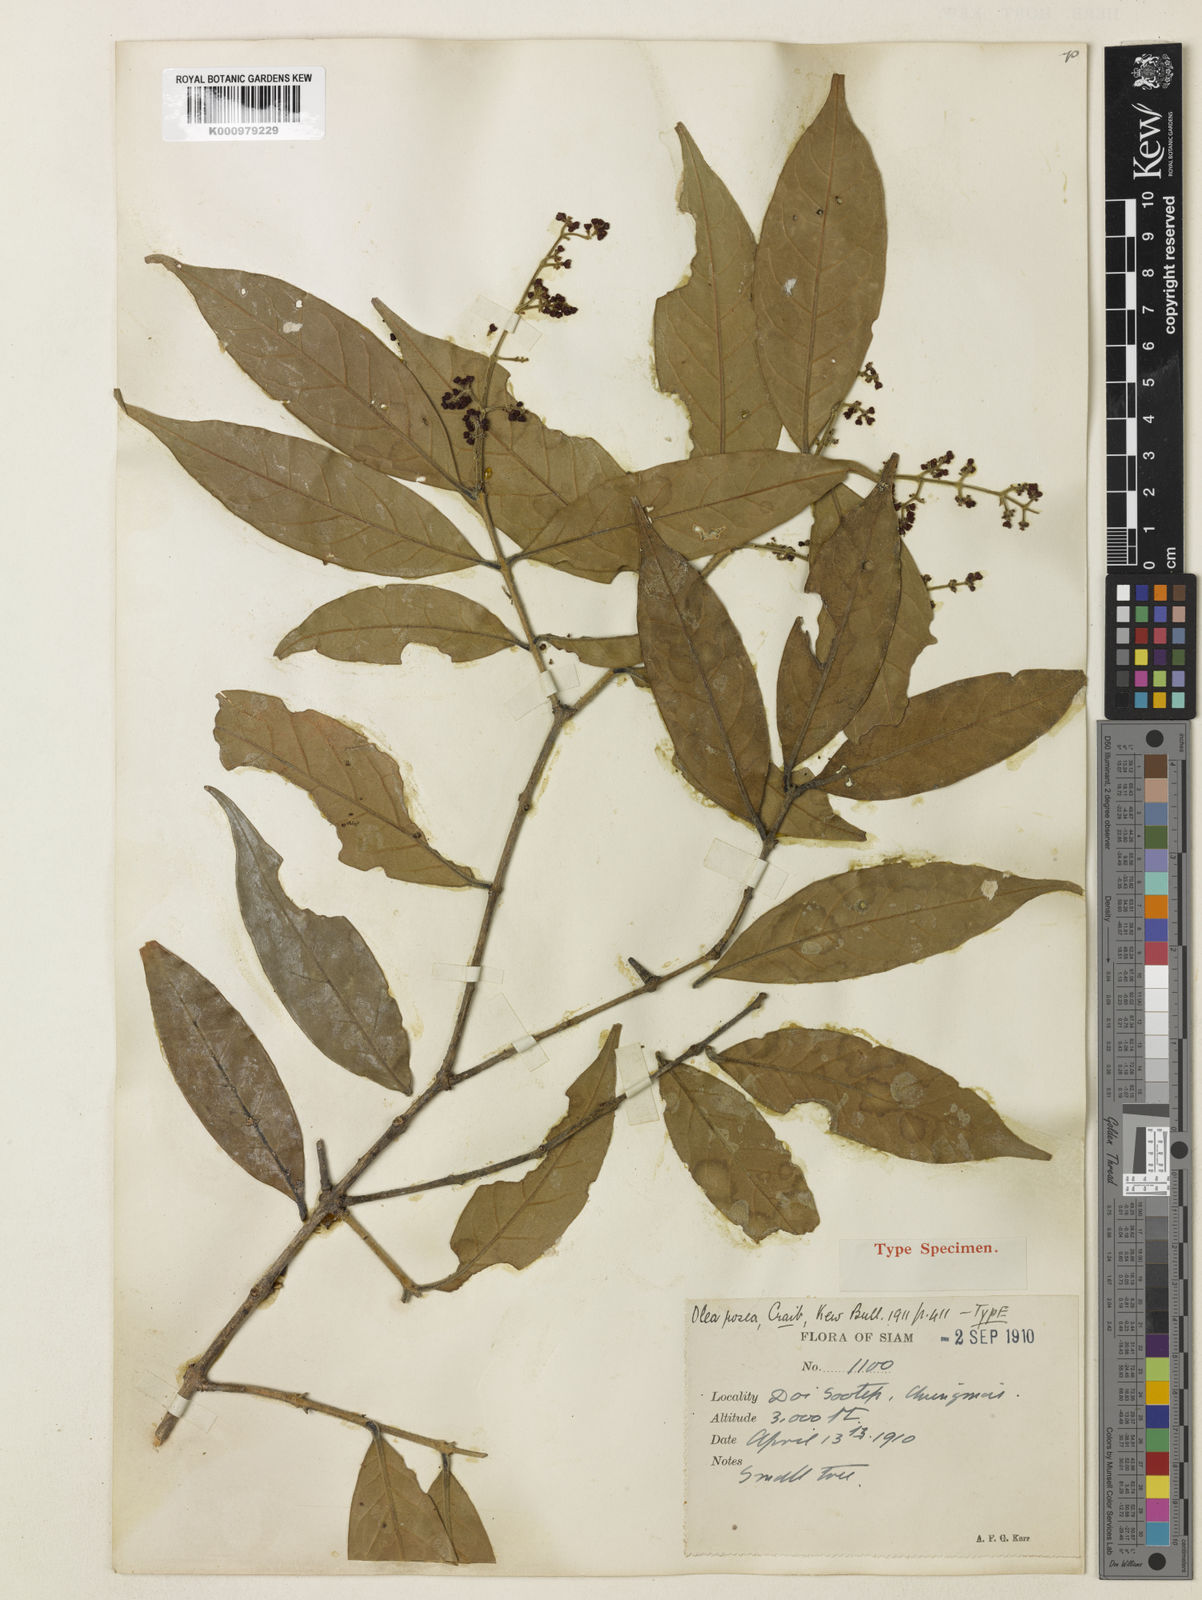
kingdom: Plantae
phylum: Tracheophyta
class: Magnoliopsida
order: Lamiales
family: Oleaceae
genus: Tetrapilus
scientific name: Tetrapilus roseus
